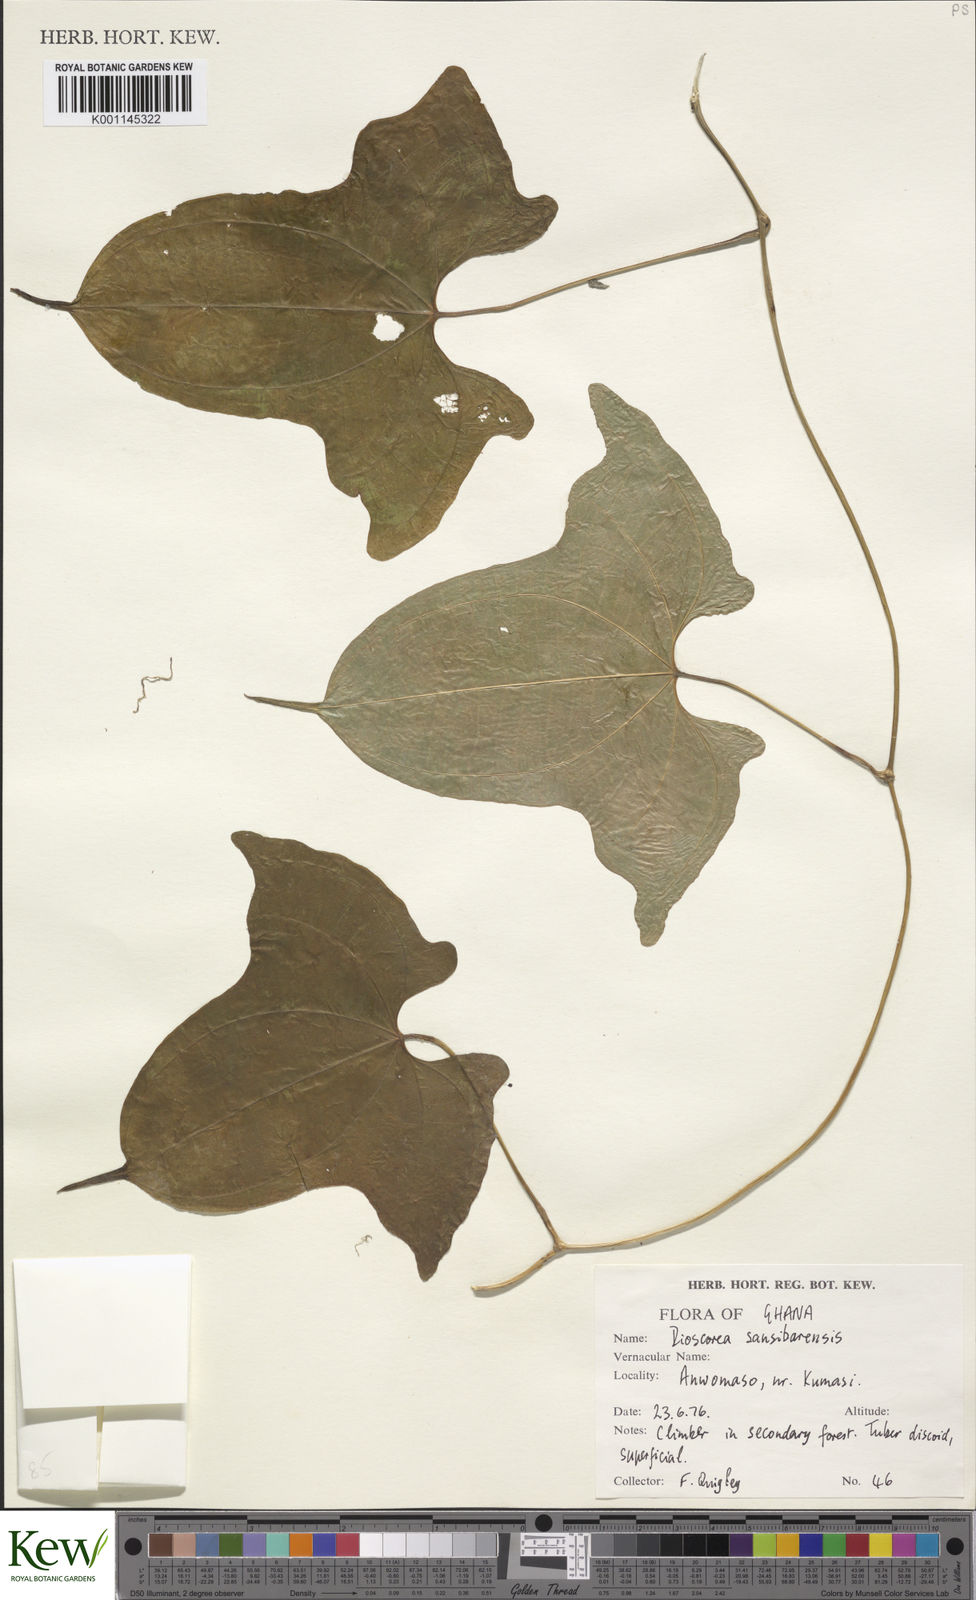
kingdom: Plantae
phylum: Tracheophyta
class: Liliopsida
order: Dioscoreales
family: Dioscoreaceae
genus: Dioscorea
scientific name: Dioscorea sansibarensis
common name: Zanzibar yam
